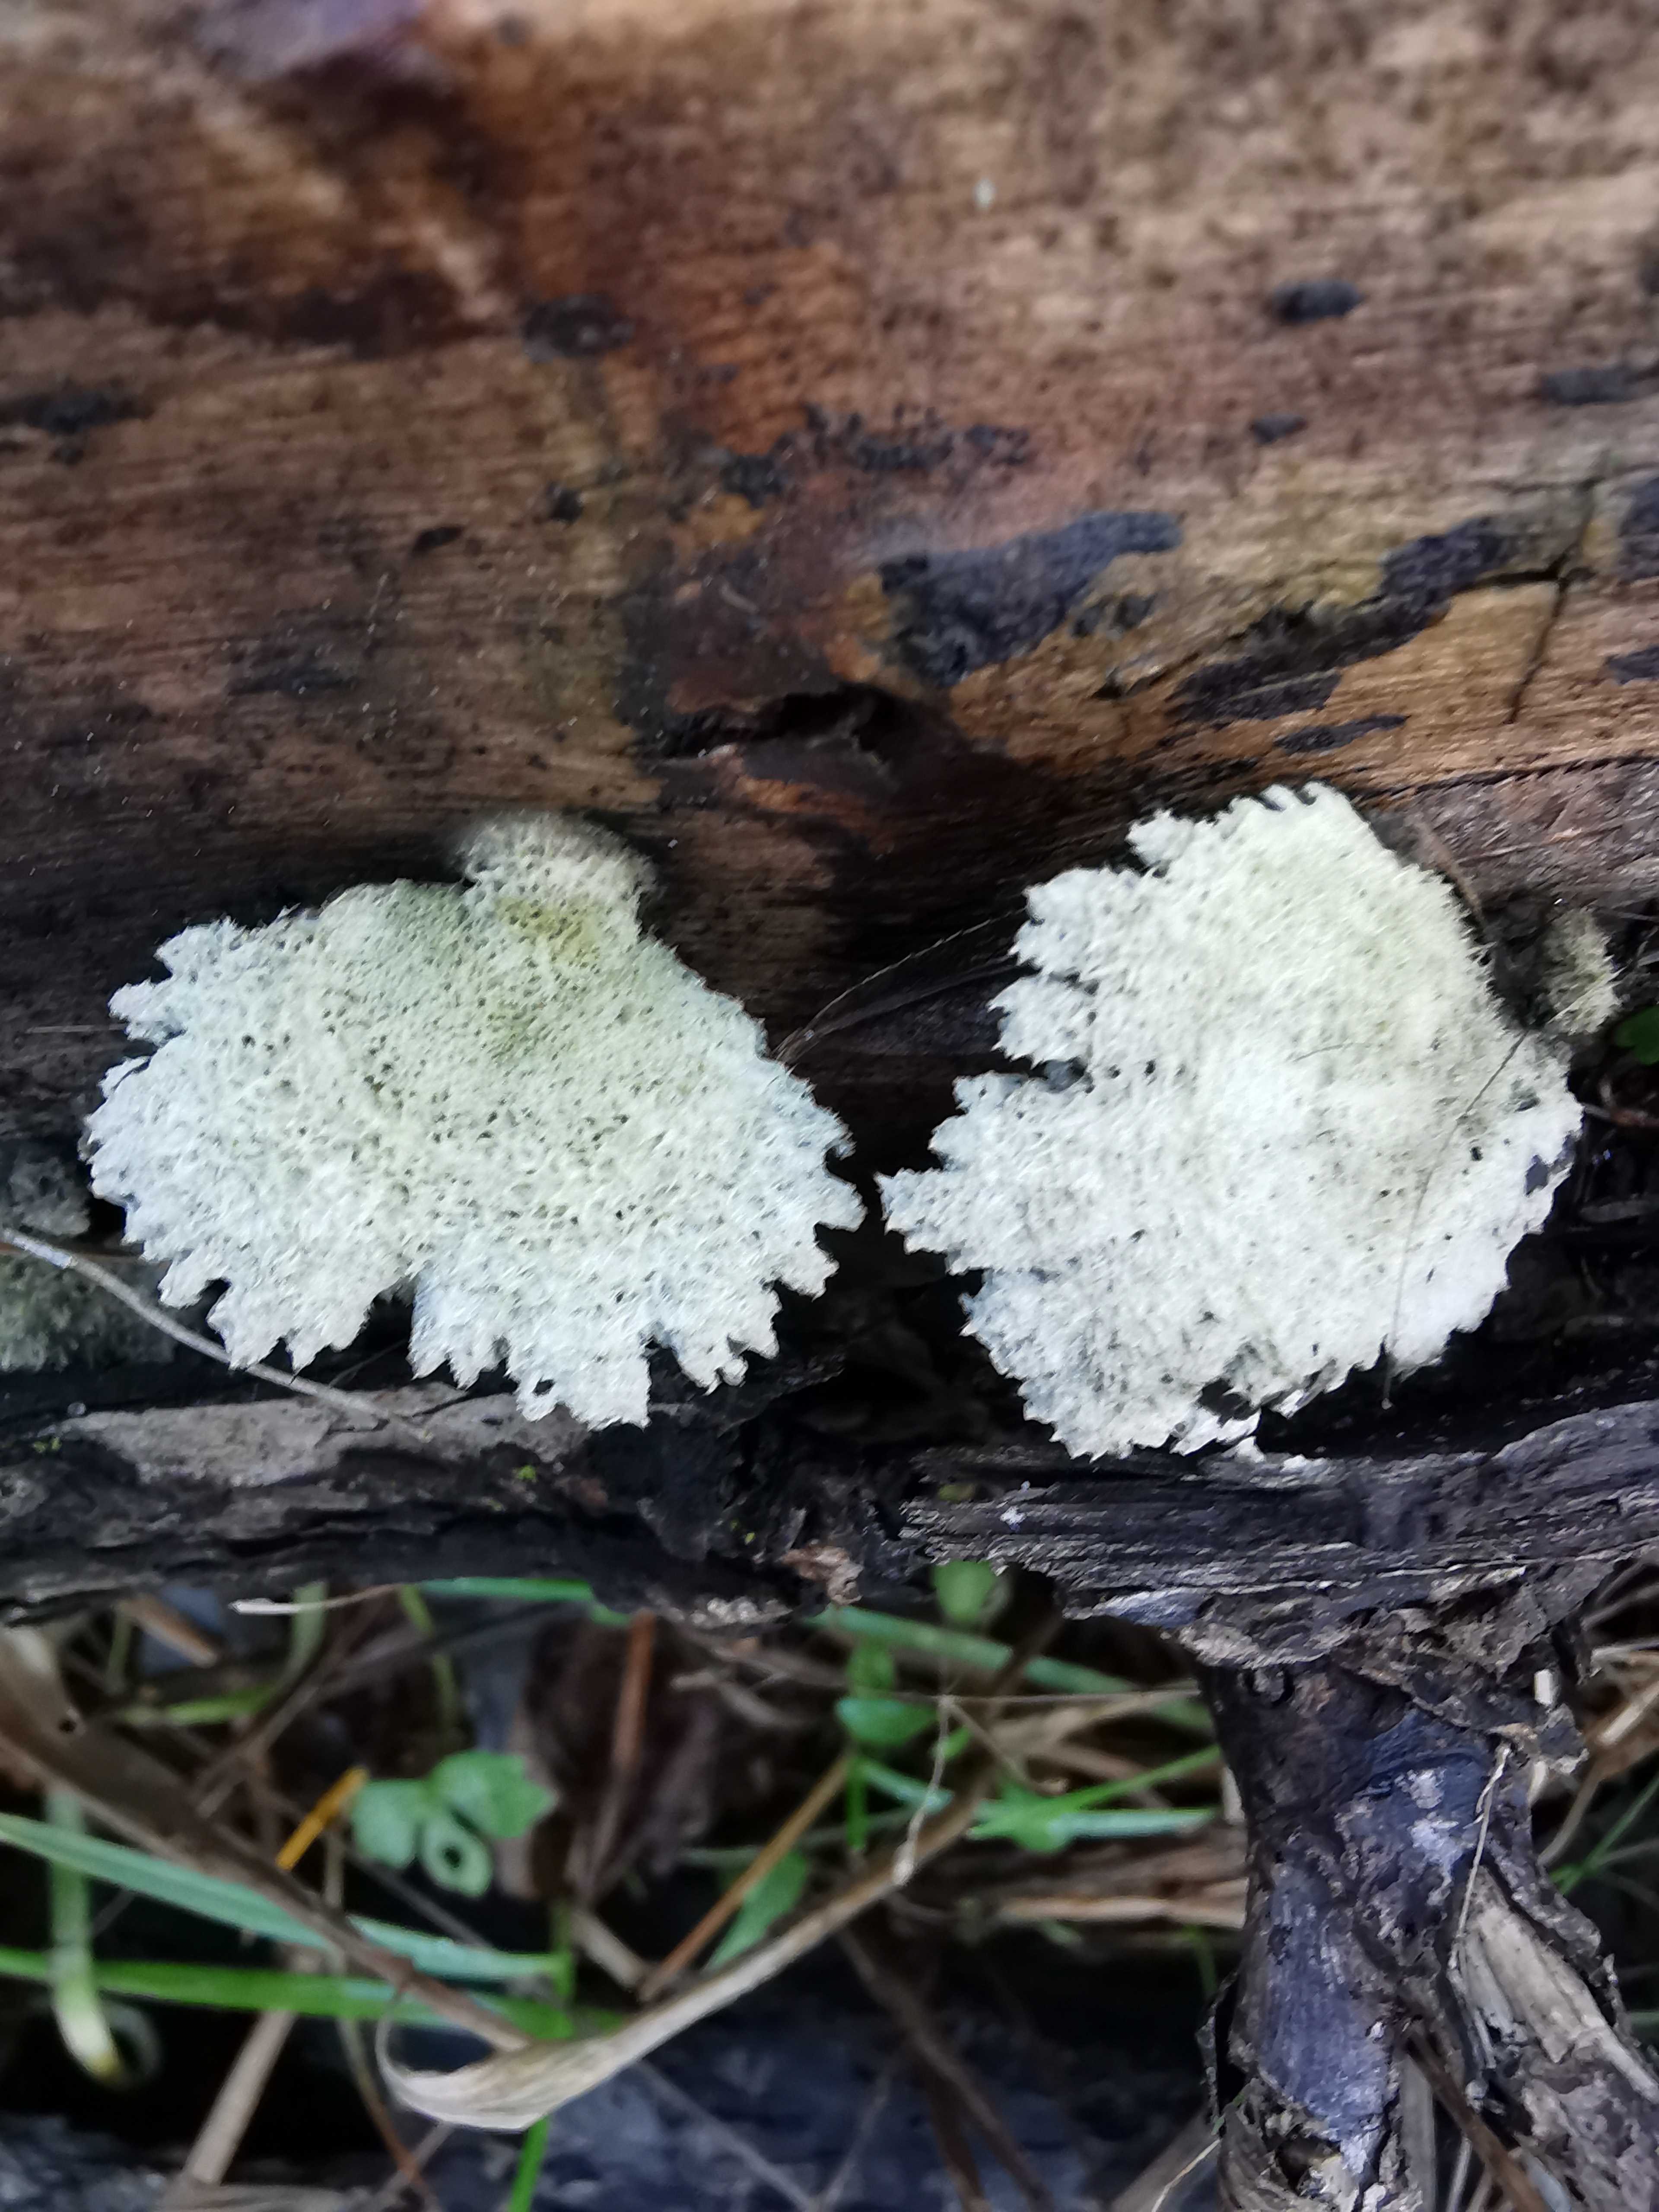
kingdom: Fungi
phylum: Basidiomycota
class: Agaricomycetes
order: Agaricales
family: Schizophyllaceae
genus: Schizophyllum
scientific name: Schizophyllum commune
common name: kløvblad
